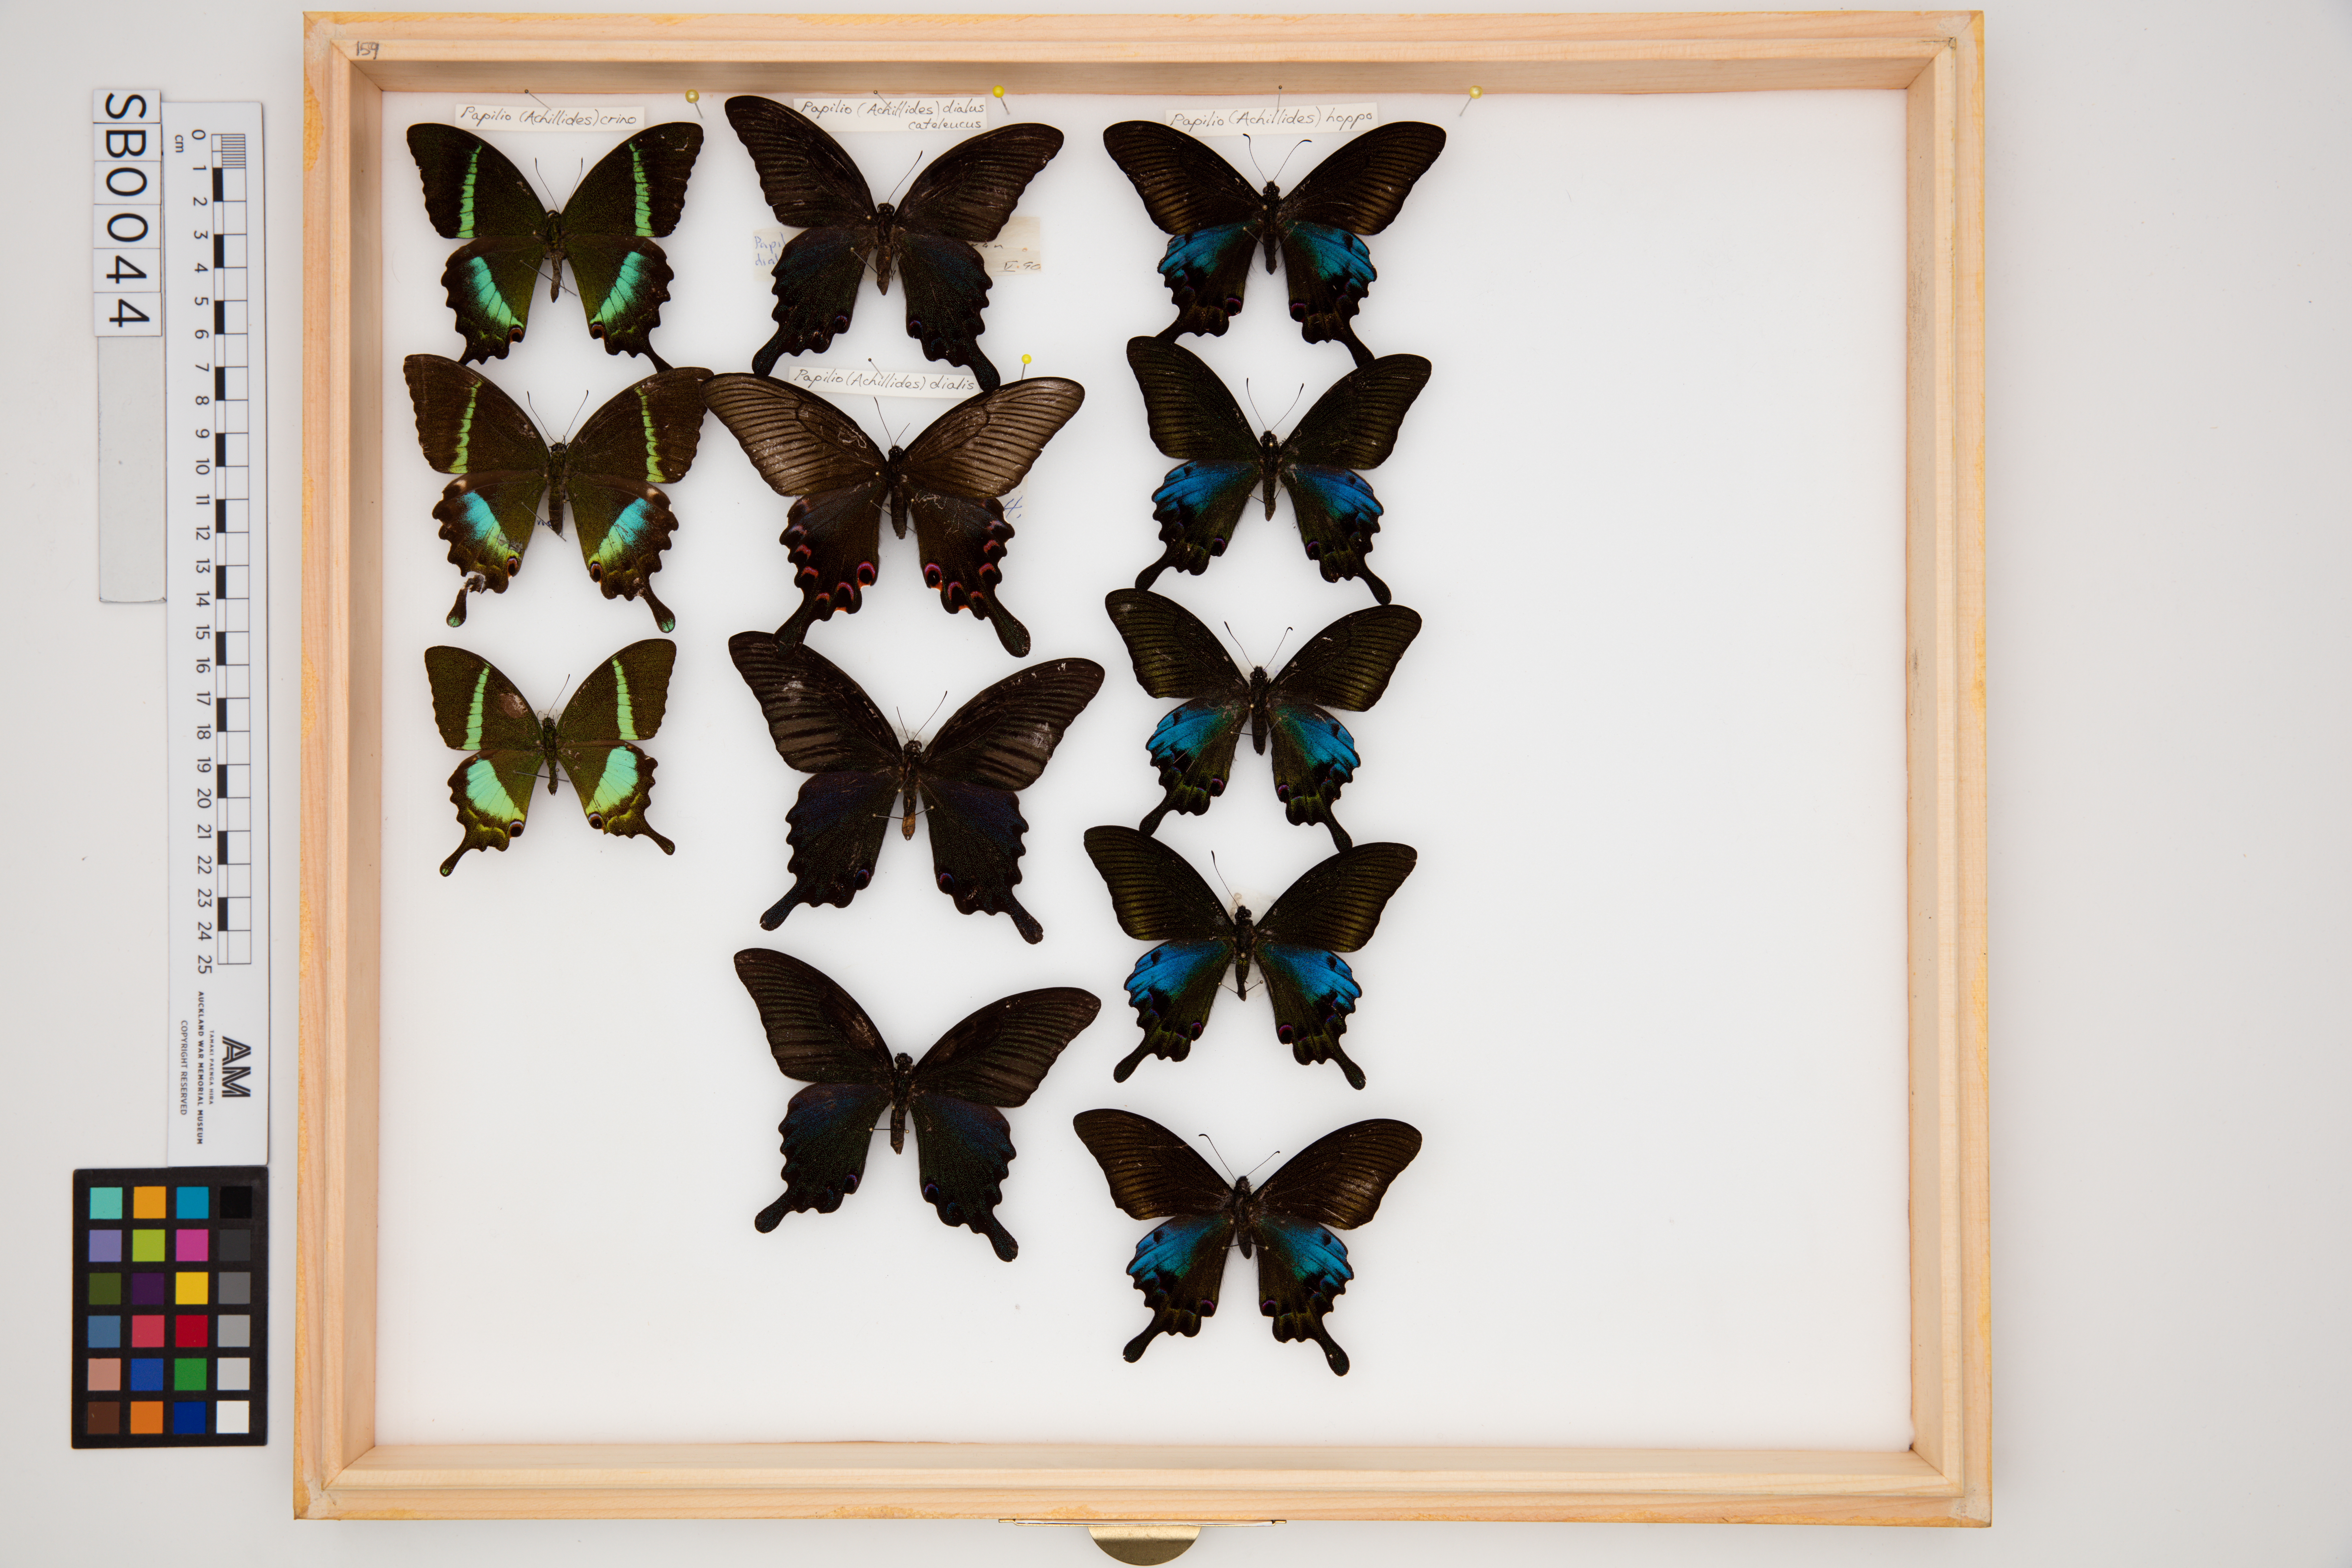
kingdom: Animalia
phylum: Arthropoda
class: Insecta
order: Lepidoptera
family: Papilionidae
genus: Papilio
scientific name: Papilio dialis
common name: Southern chinese peacock swallowtail
